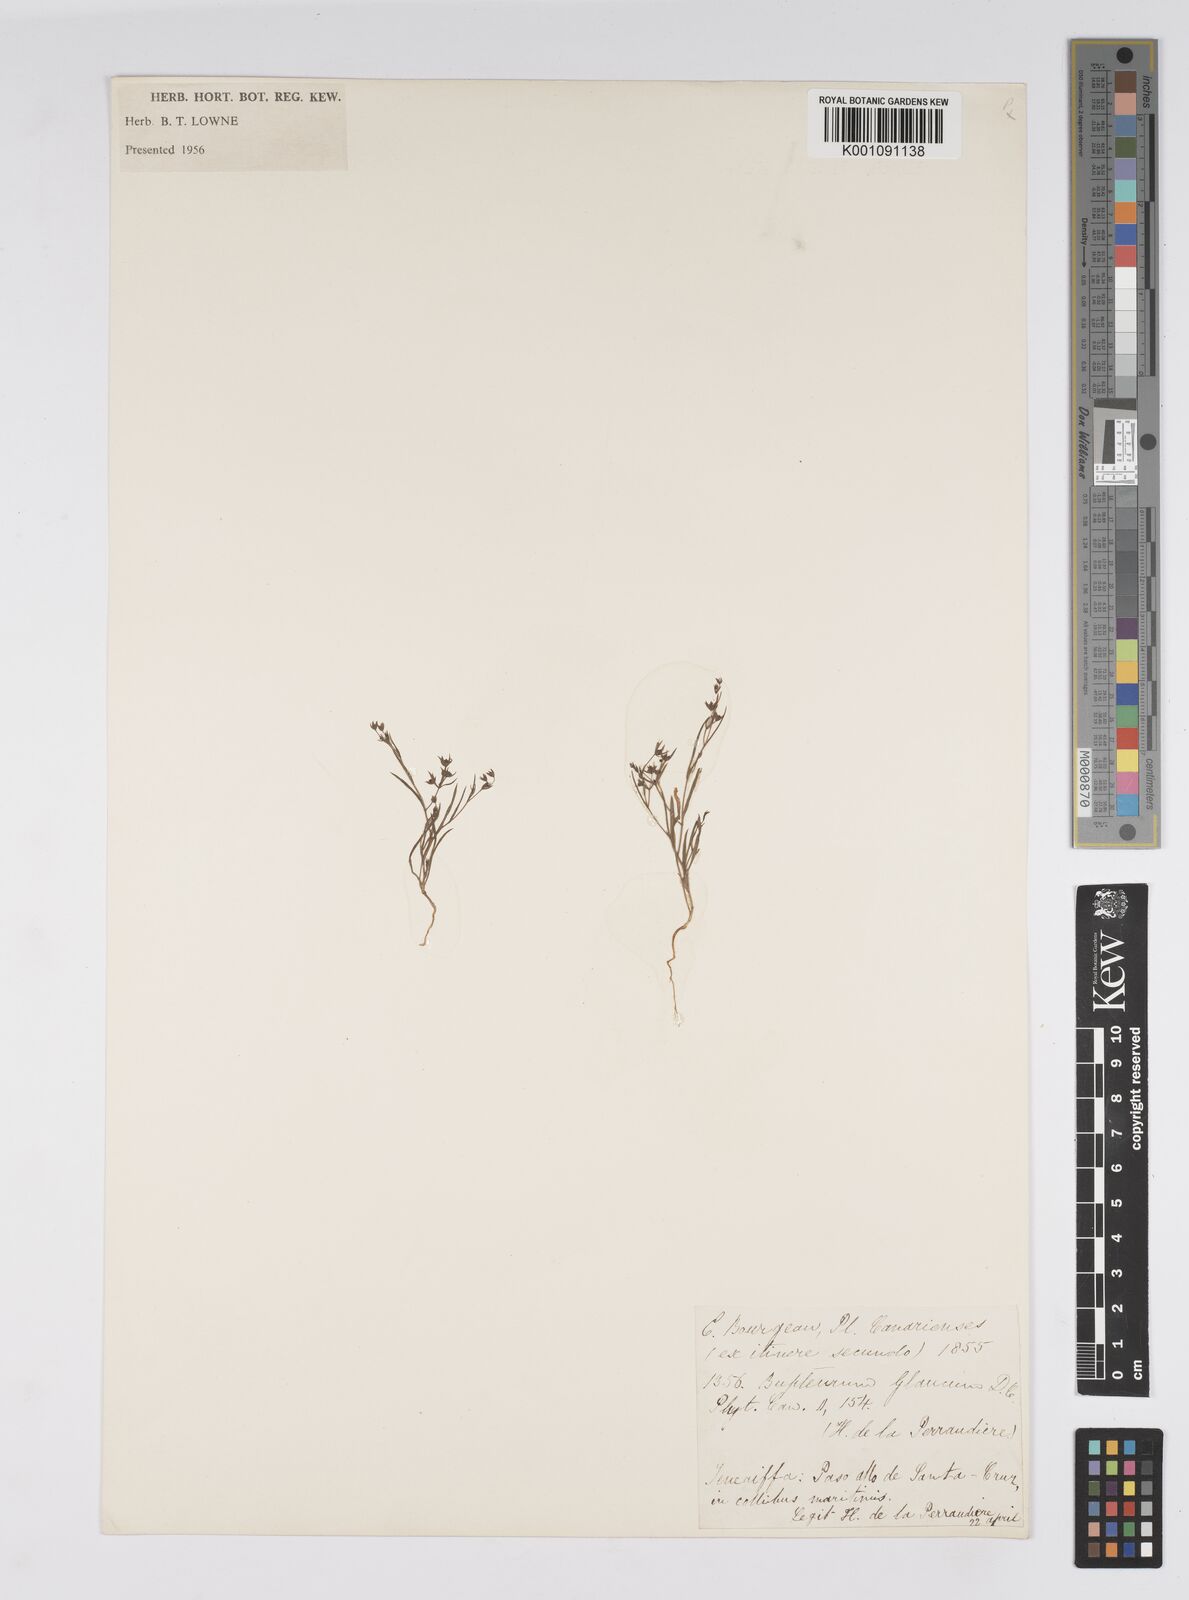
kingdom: Plantae
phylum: Tracheophyta
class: Magnoliopsida
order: Apiales
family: Apiaceae
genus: Bupleurum
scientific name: Bupleurum semicompositum
